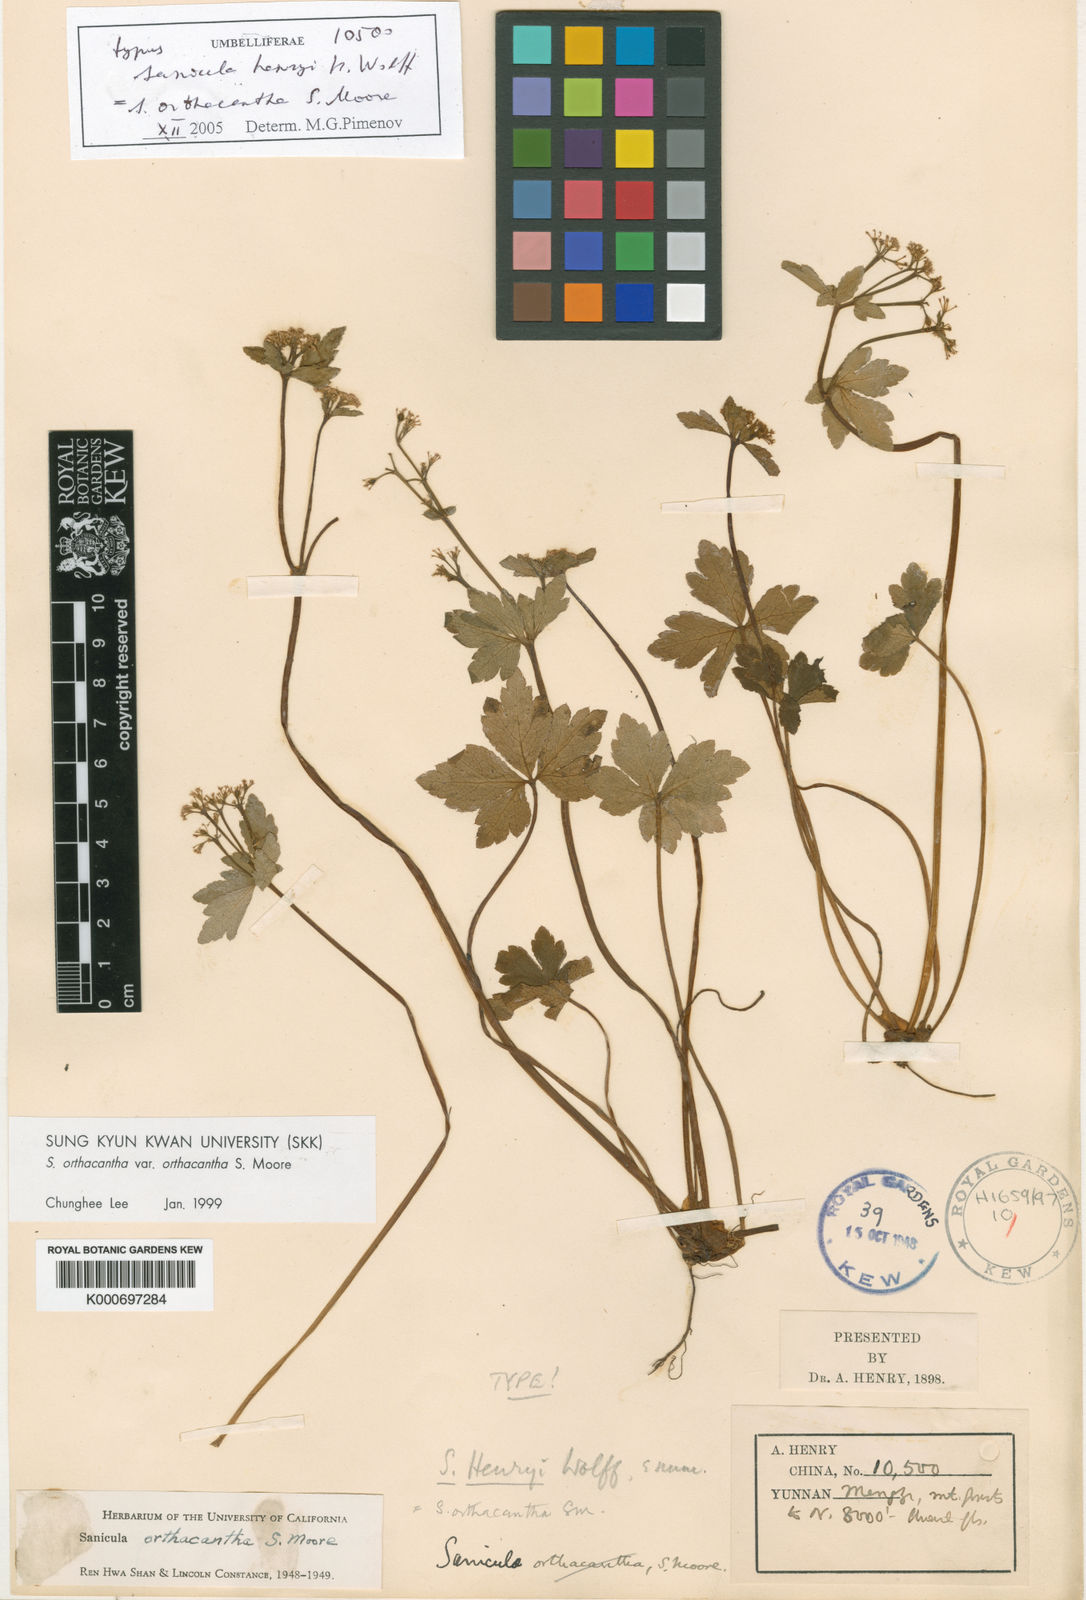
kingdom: Plantae
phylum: Tracheophyta
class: Magnoliopsida
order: Apiales
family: Apiaceae
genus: Sanicula
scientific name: Sanicula orthacantha
